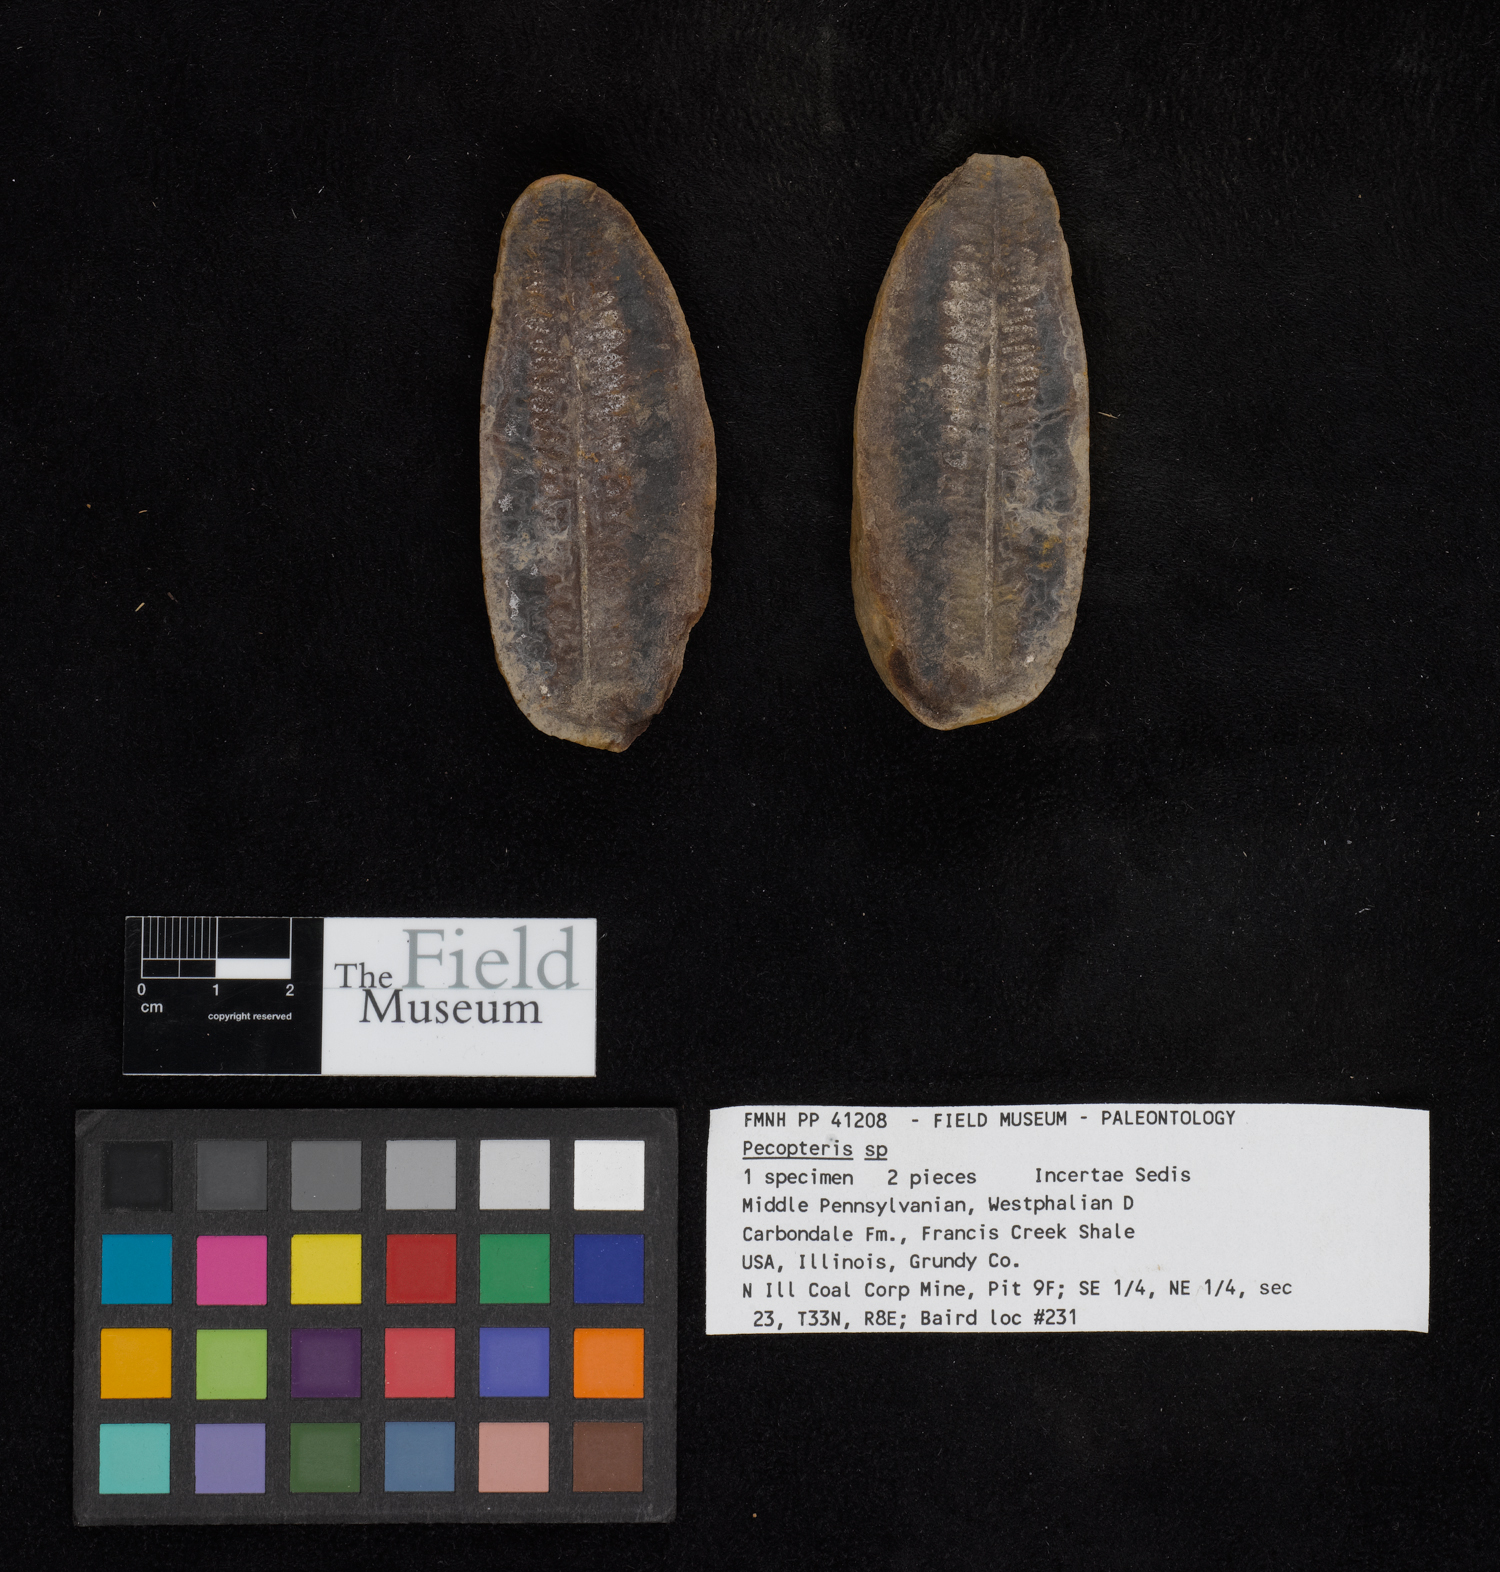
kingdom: Plantae
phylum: Tracheophyta
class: Polypodiopsida
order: Marattiales
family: Asterothecaceae
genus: Pecopteris
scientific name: Pecopteris
